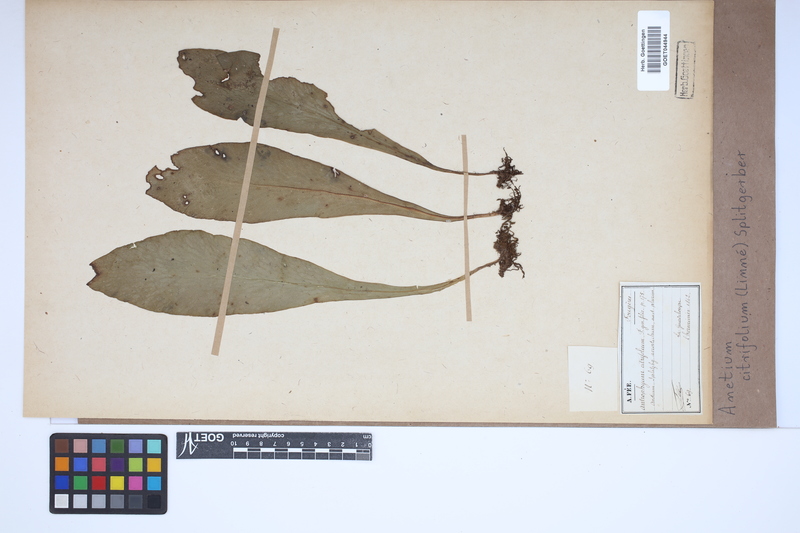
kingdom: Plantae
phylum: Tracheophyta
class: Polypodiopsida
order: Polypodiales
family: Pteridaceae
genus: Polytaenium
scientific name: Polytaenium citrifolium
